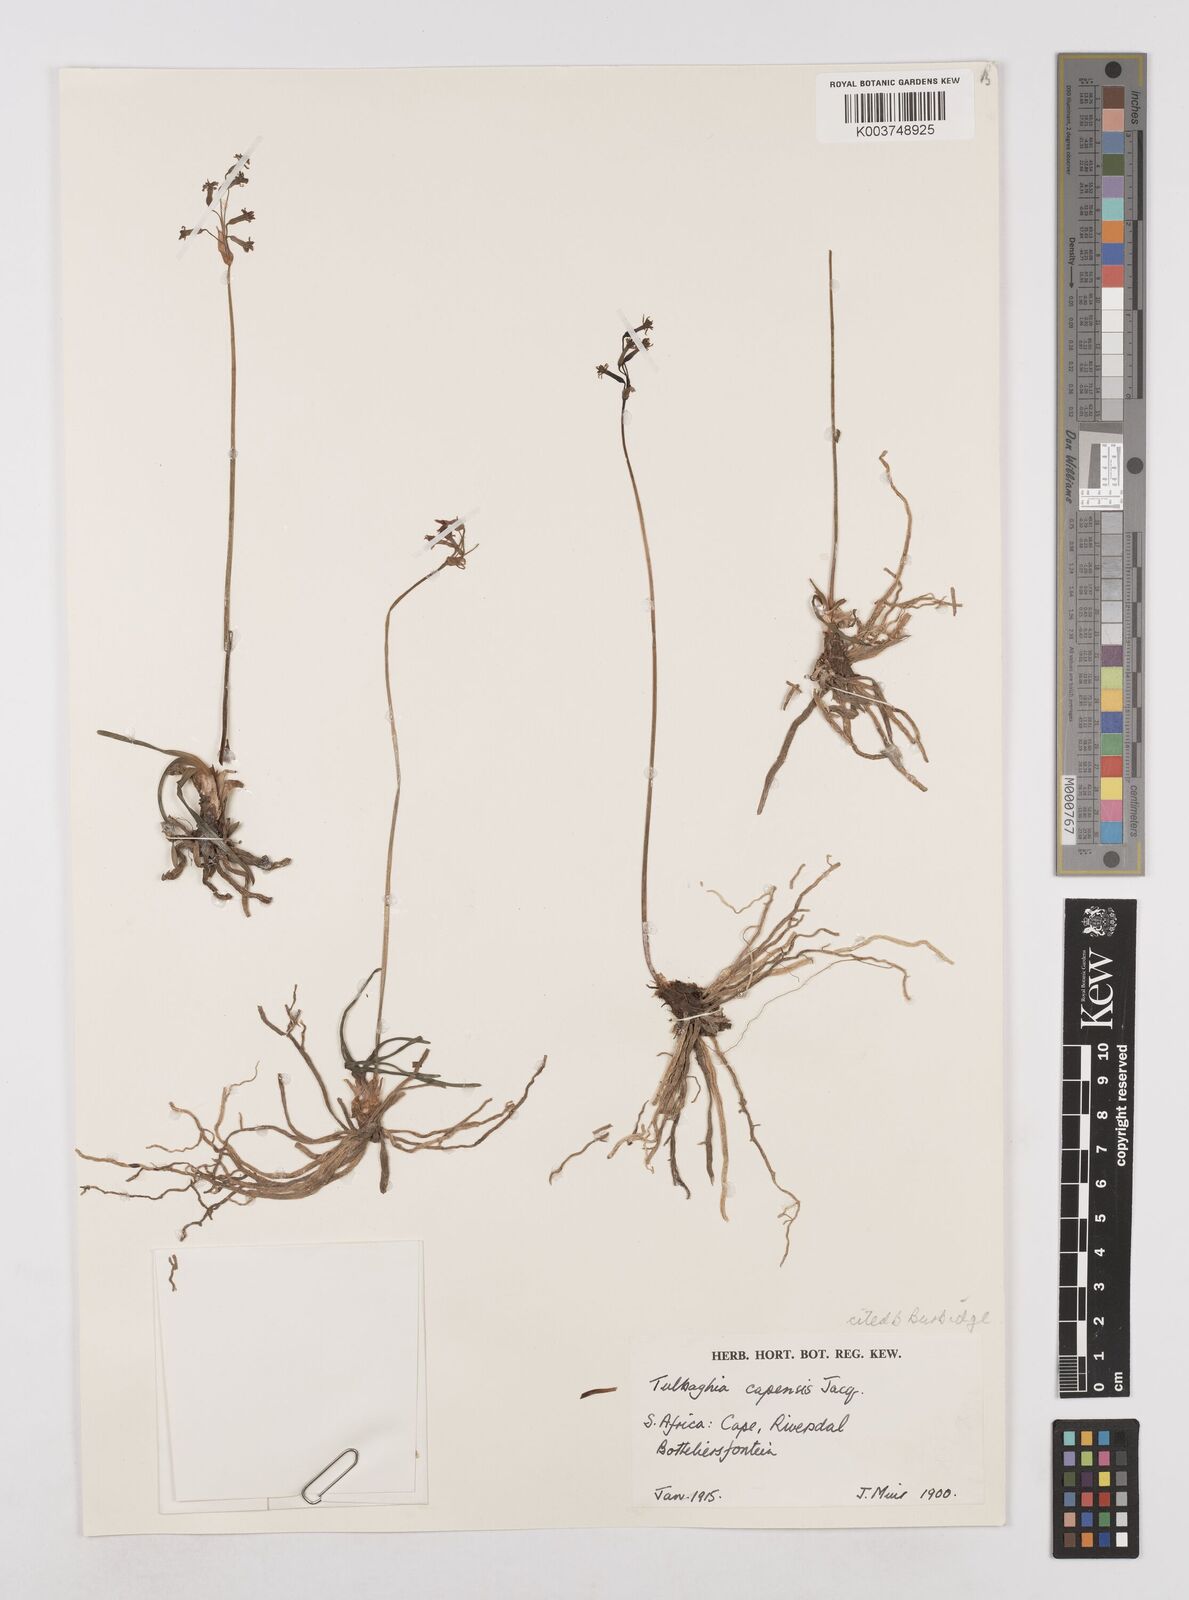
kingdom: Plantae
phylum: Tracheophyta
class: Liliopsida
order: Asparagales
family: Amaryllidaceae
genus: Tulbaghia
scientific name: Tulbaghia capensis
